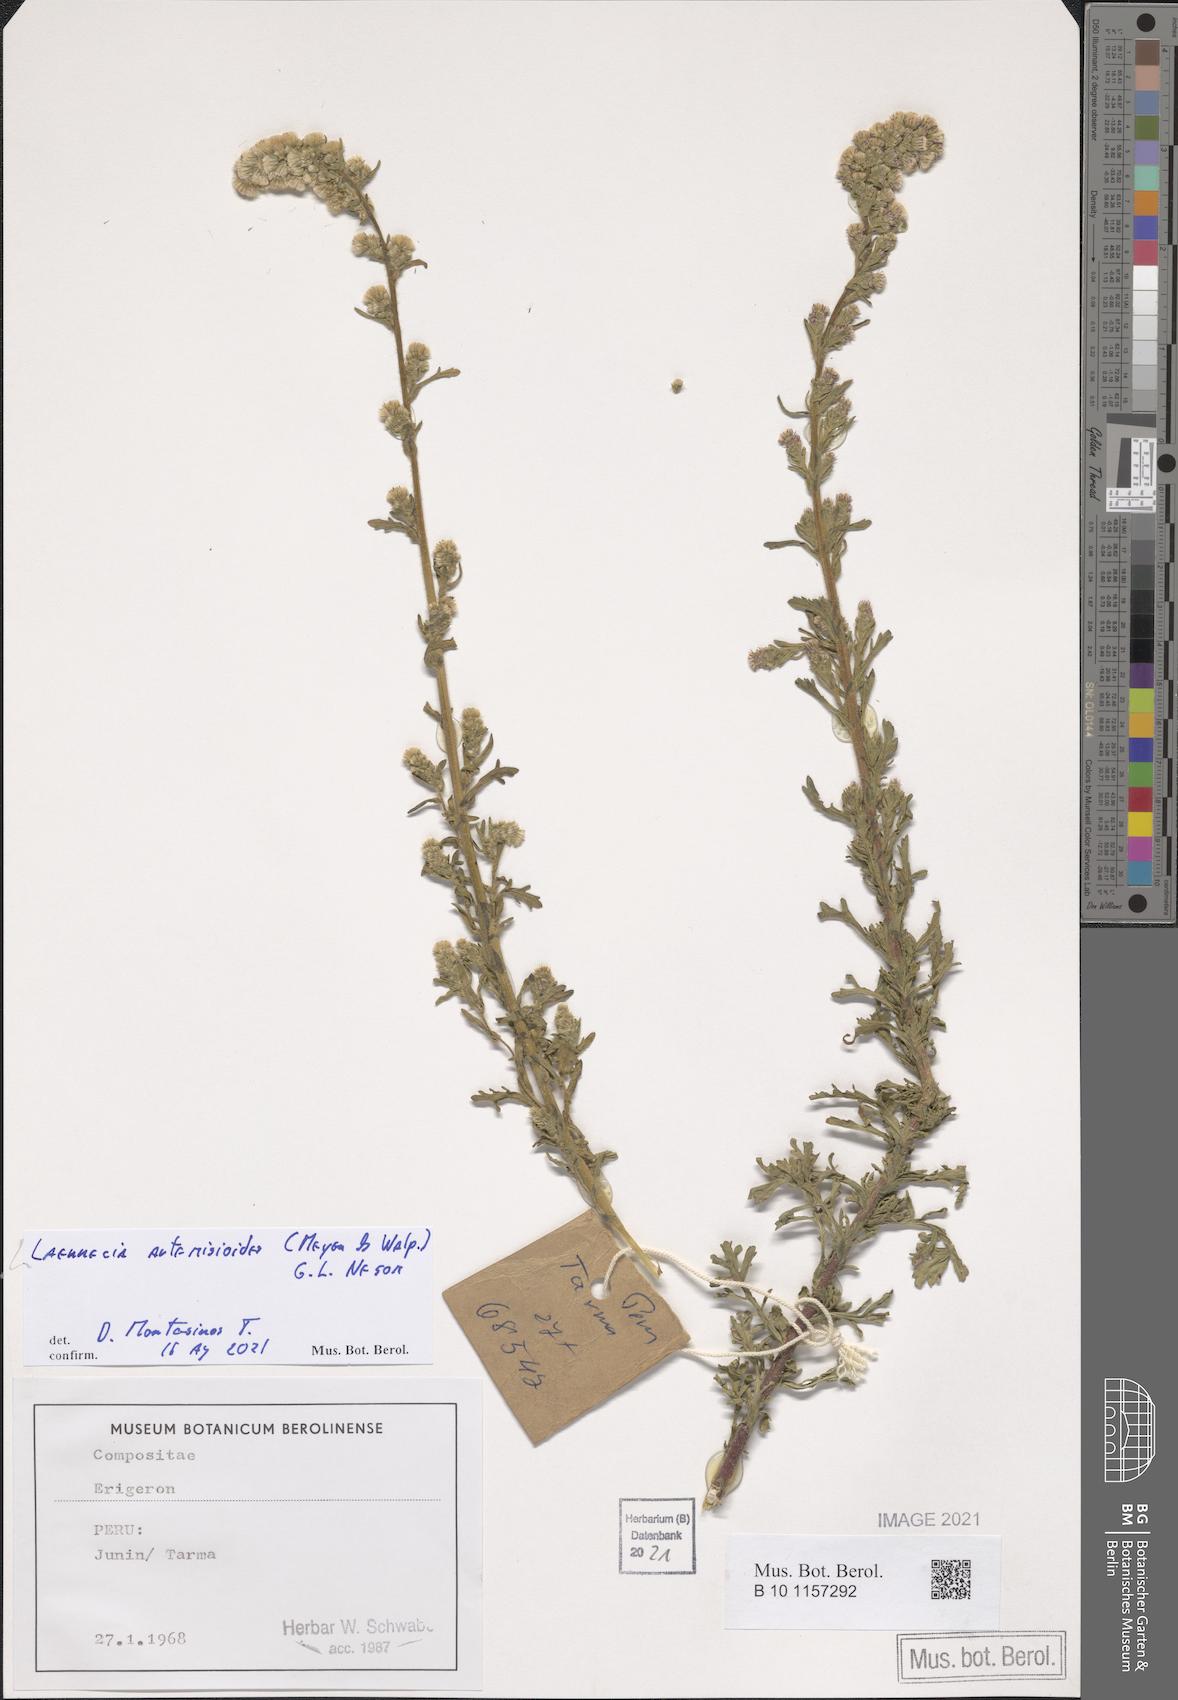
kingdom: Plantae
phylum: Tracheophyta
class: Magnoliopsida
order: Asterales
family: Asteraceae
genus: Laennecia
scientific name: Laennecia artemisiifolia
